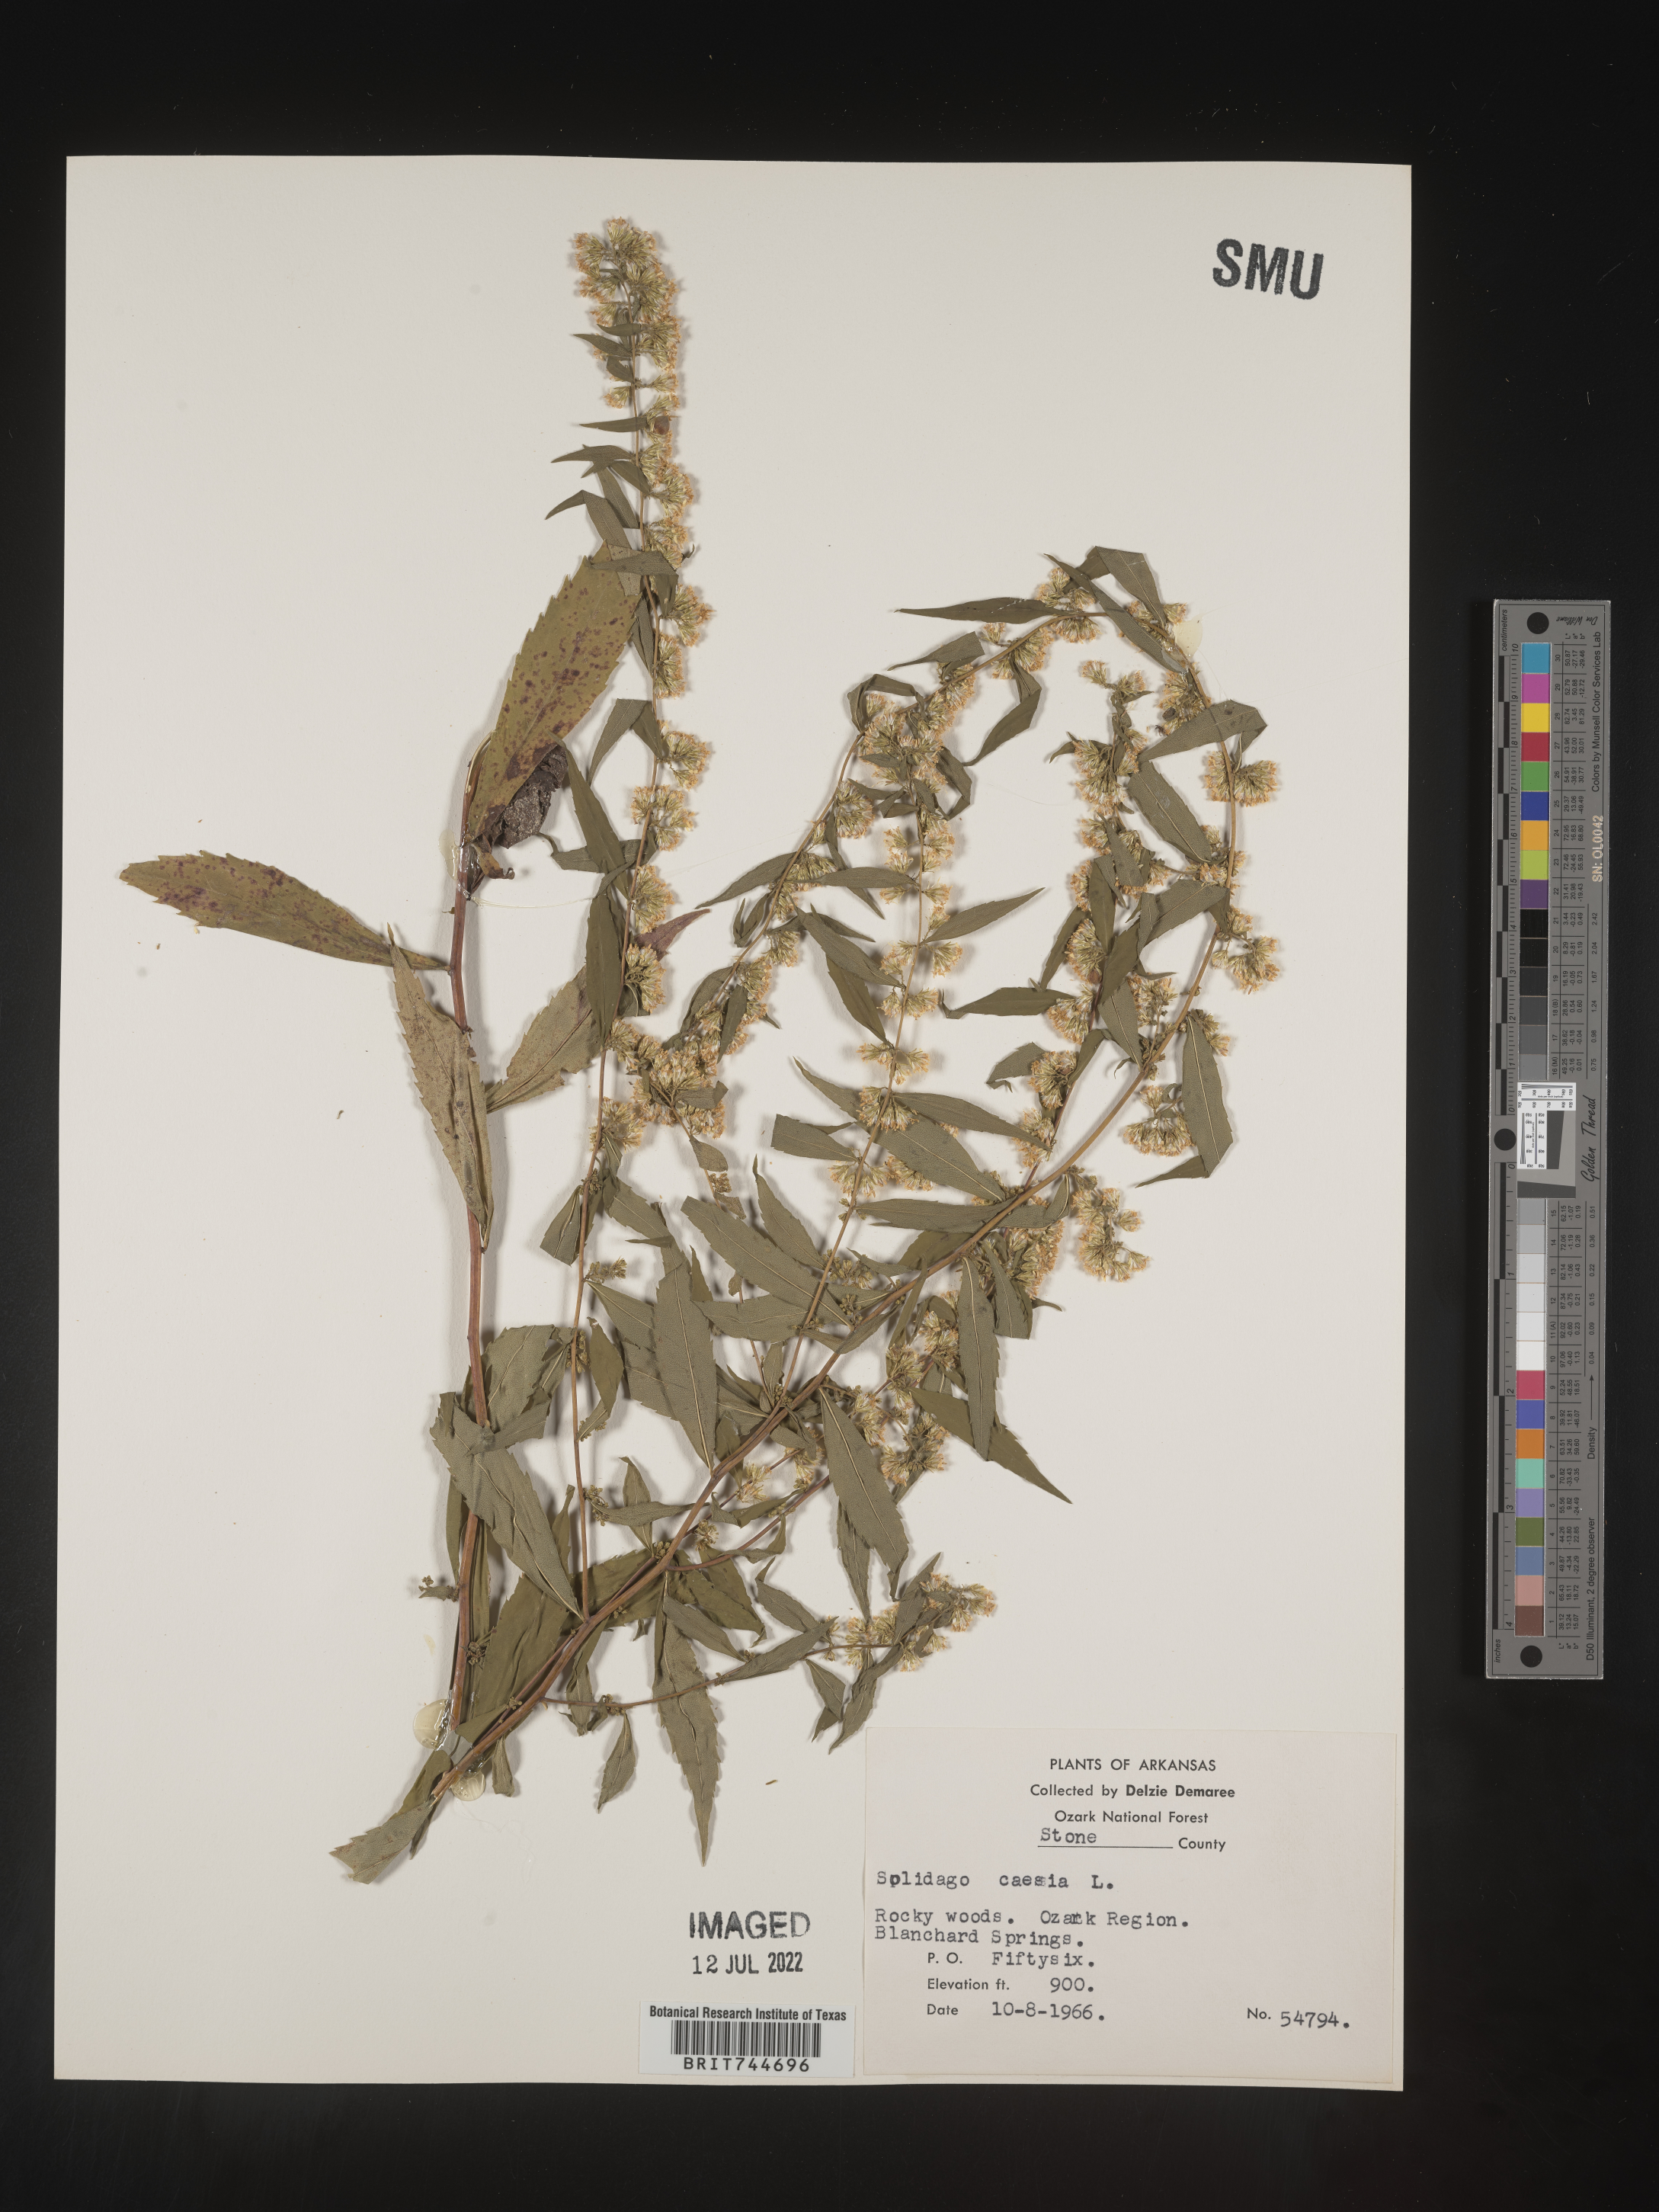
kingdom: Plantae
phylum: Tracheophyta
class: Magnoliopsida
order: Asterales
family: Asteraceae
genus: Solidago
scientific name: Solidago caesia
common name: Woodland goldenrod
